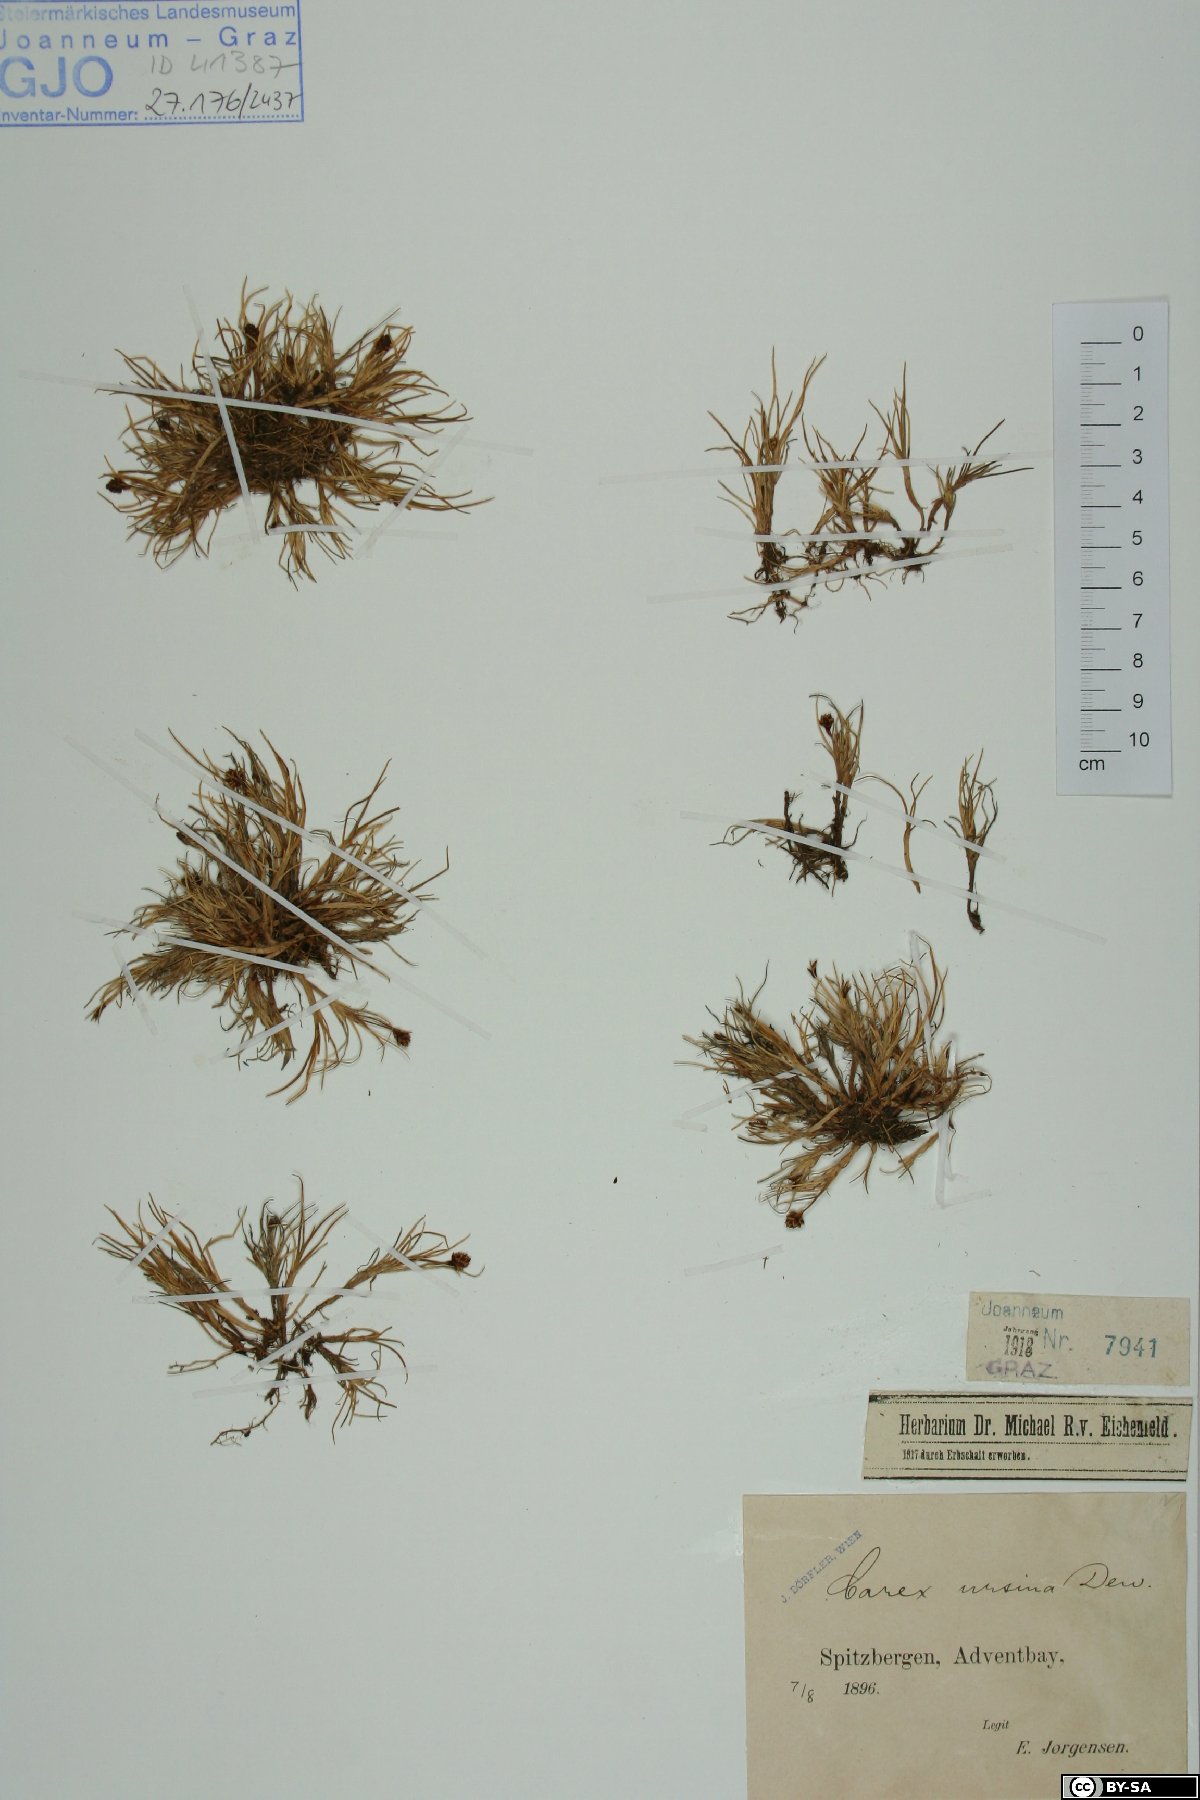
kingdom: Plantae
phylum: Tracheophyta
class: Liliopsida
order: Poales
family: Cyperaceae
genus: Carex
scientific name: Carex ursina
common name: Bear sedge
